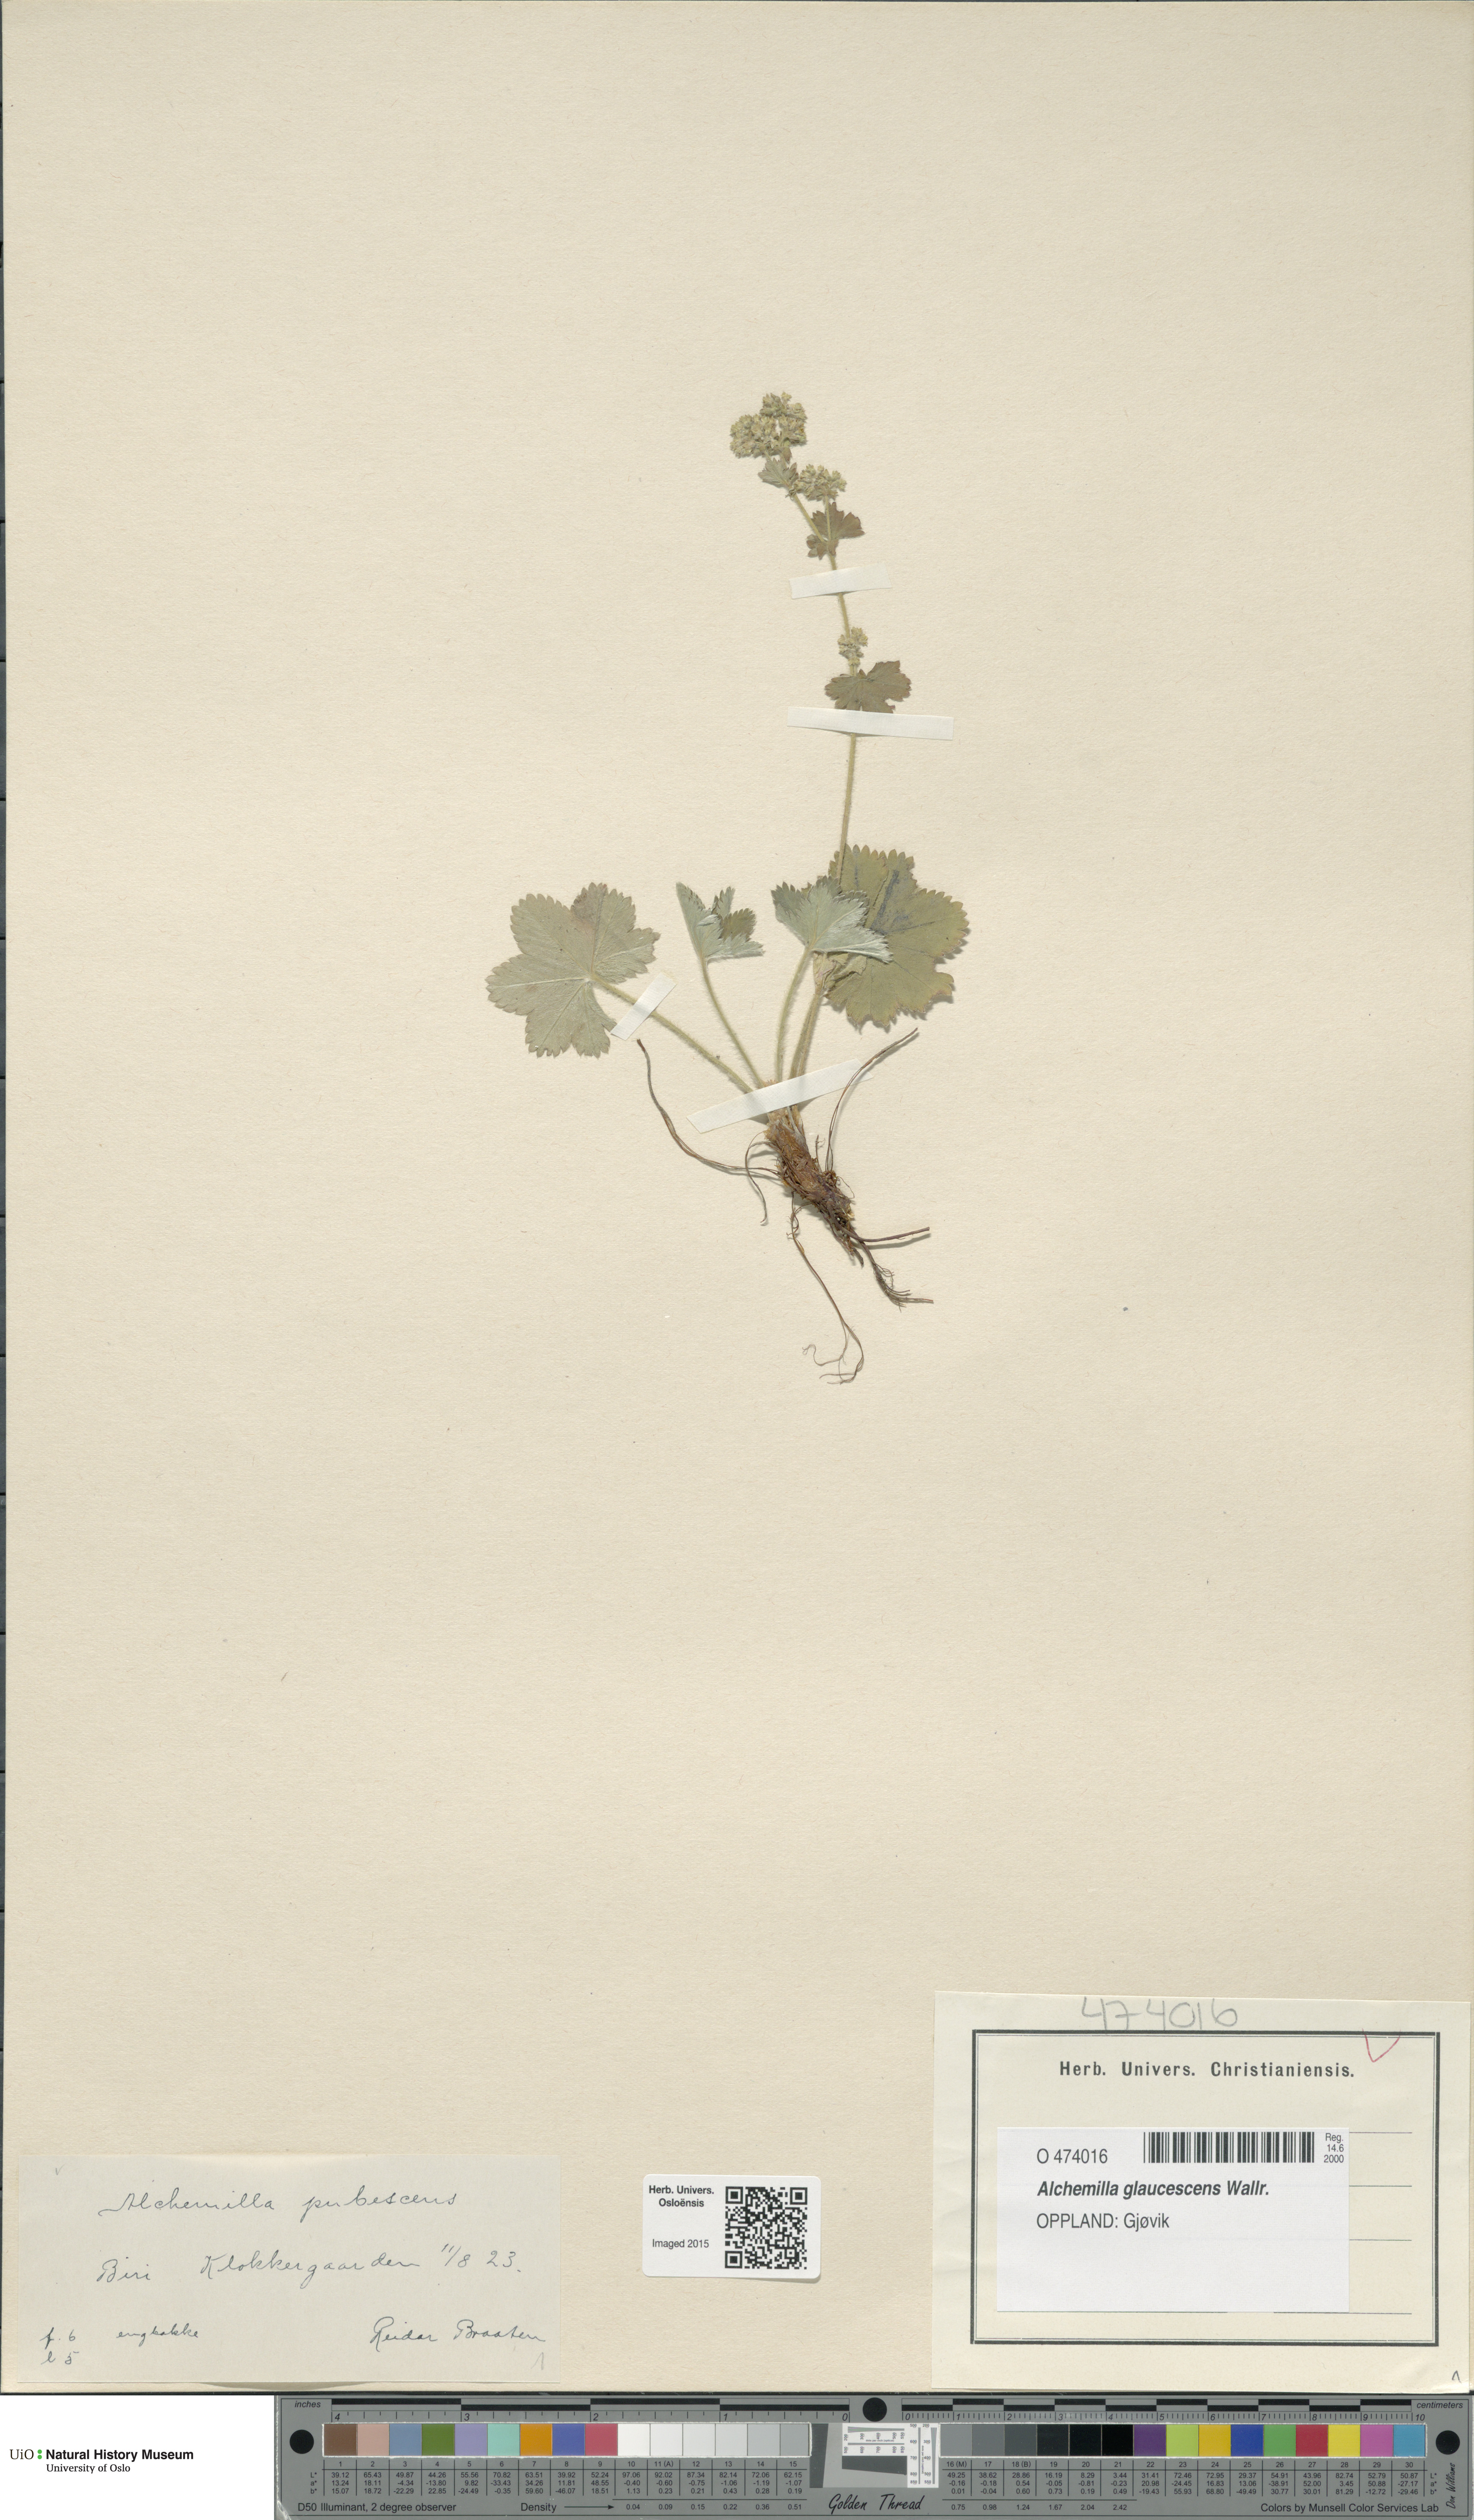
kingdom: Plantae
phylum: Tracheophyta
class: Magnoliopsida
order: Rosales
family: Rosaceae
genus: Alchemilla
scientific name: Alchemilla glaucescens
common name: Silky lady's mantle
